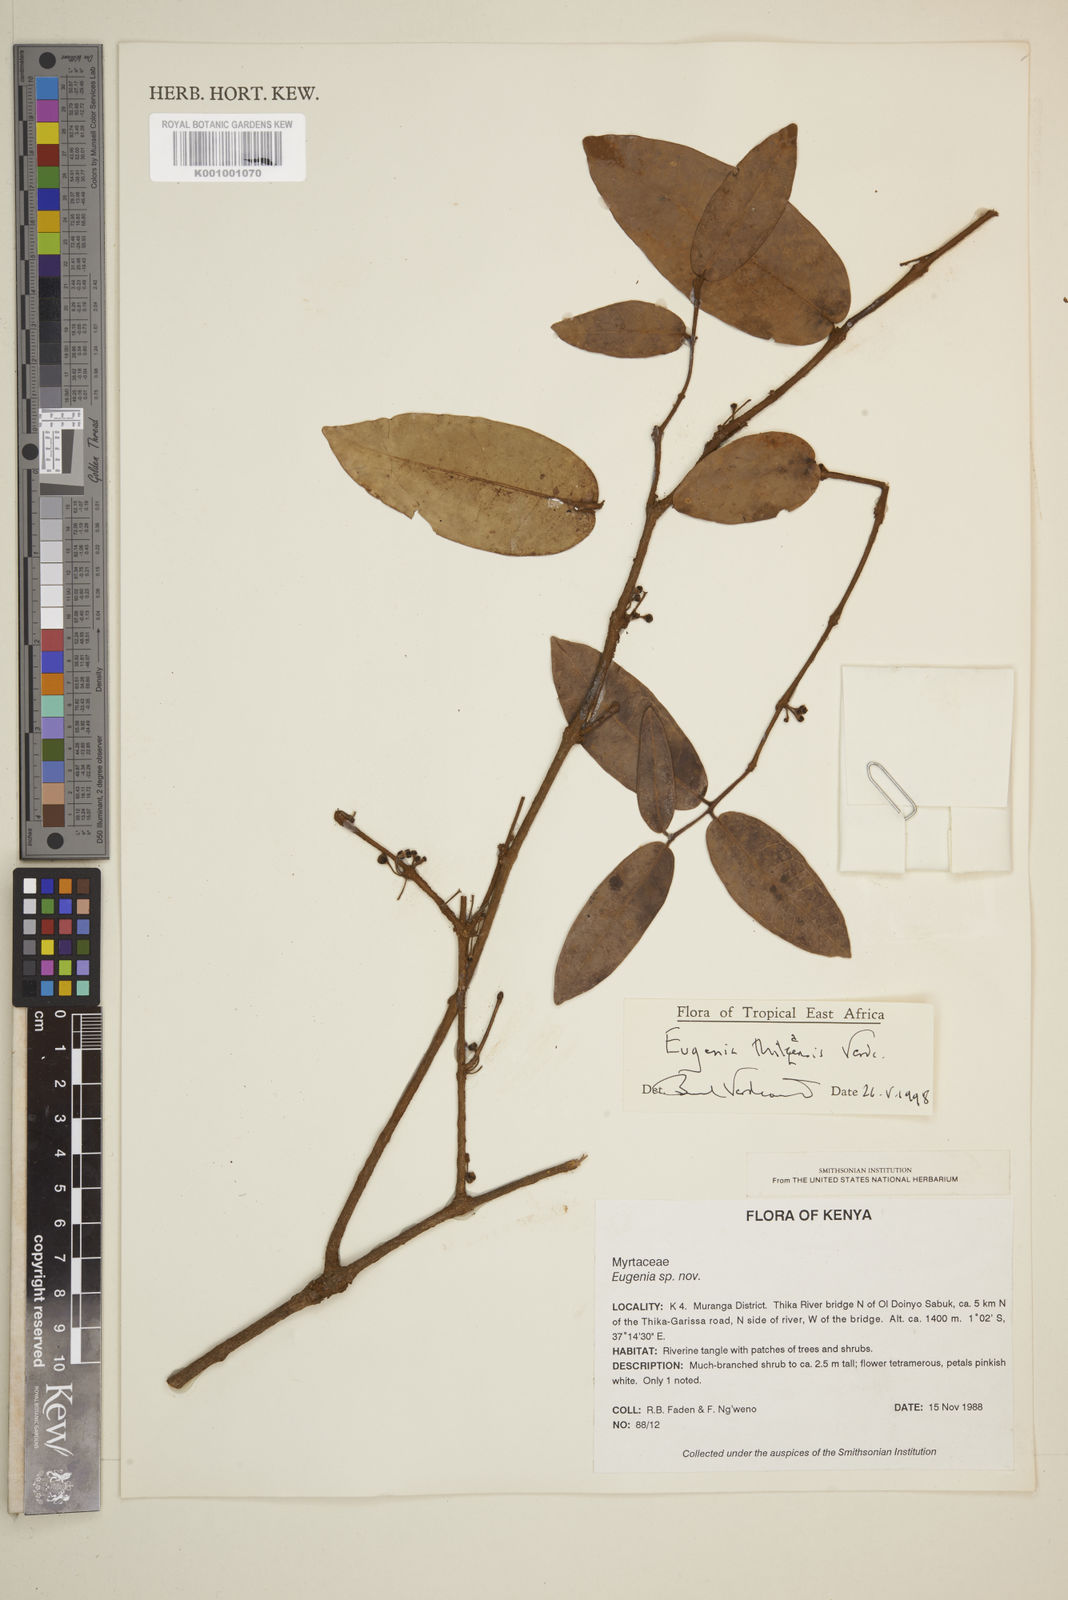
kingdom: Plantae
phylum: Tracheophyta
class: Magnoliopsida
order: Myrtales
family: Myrtaceae
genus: Eugenia
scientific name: Eugenia thikaensis
